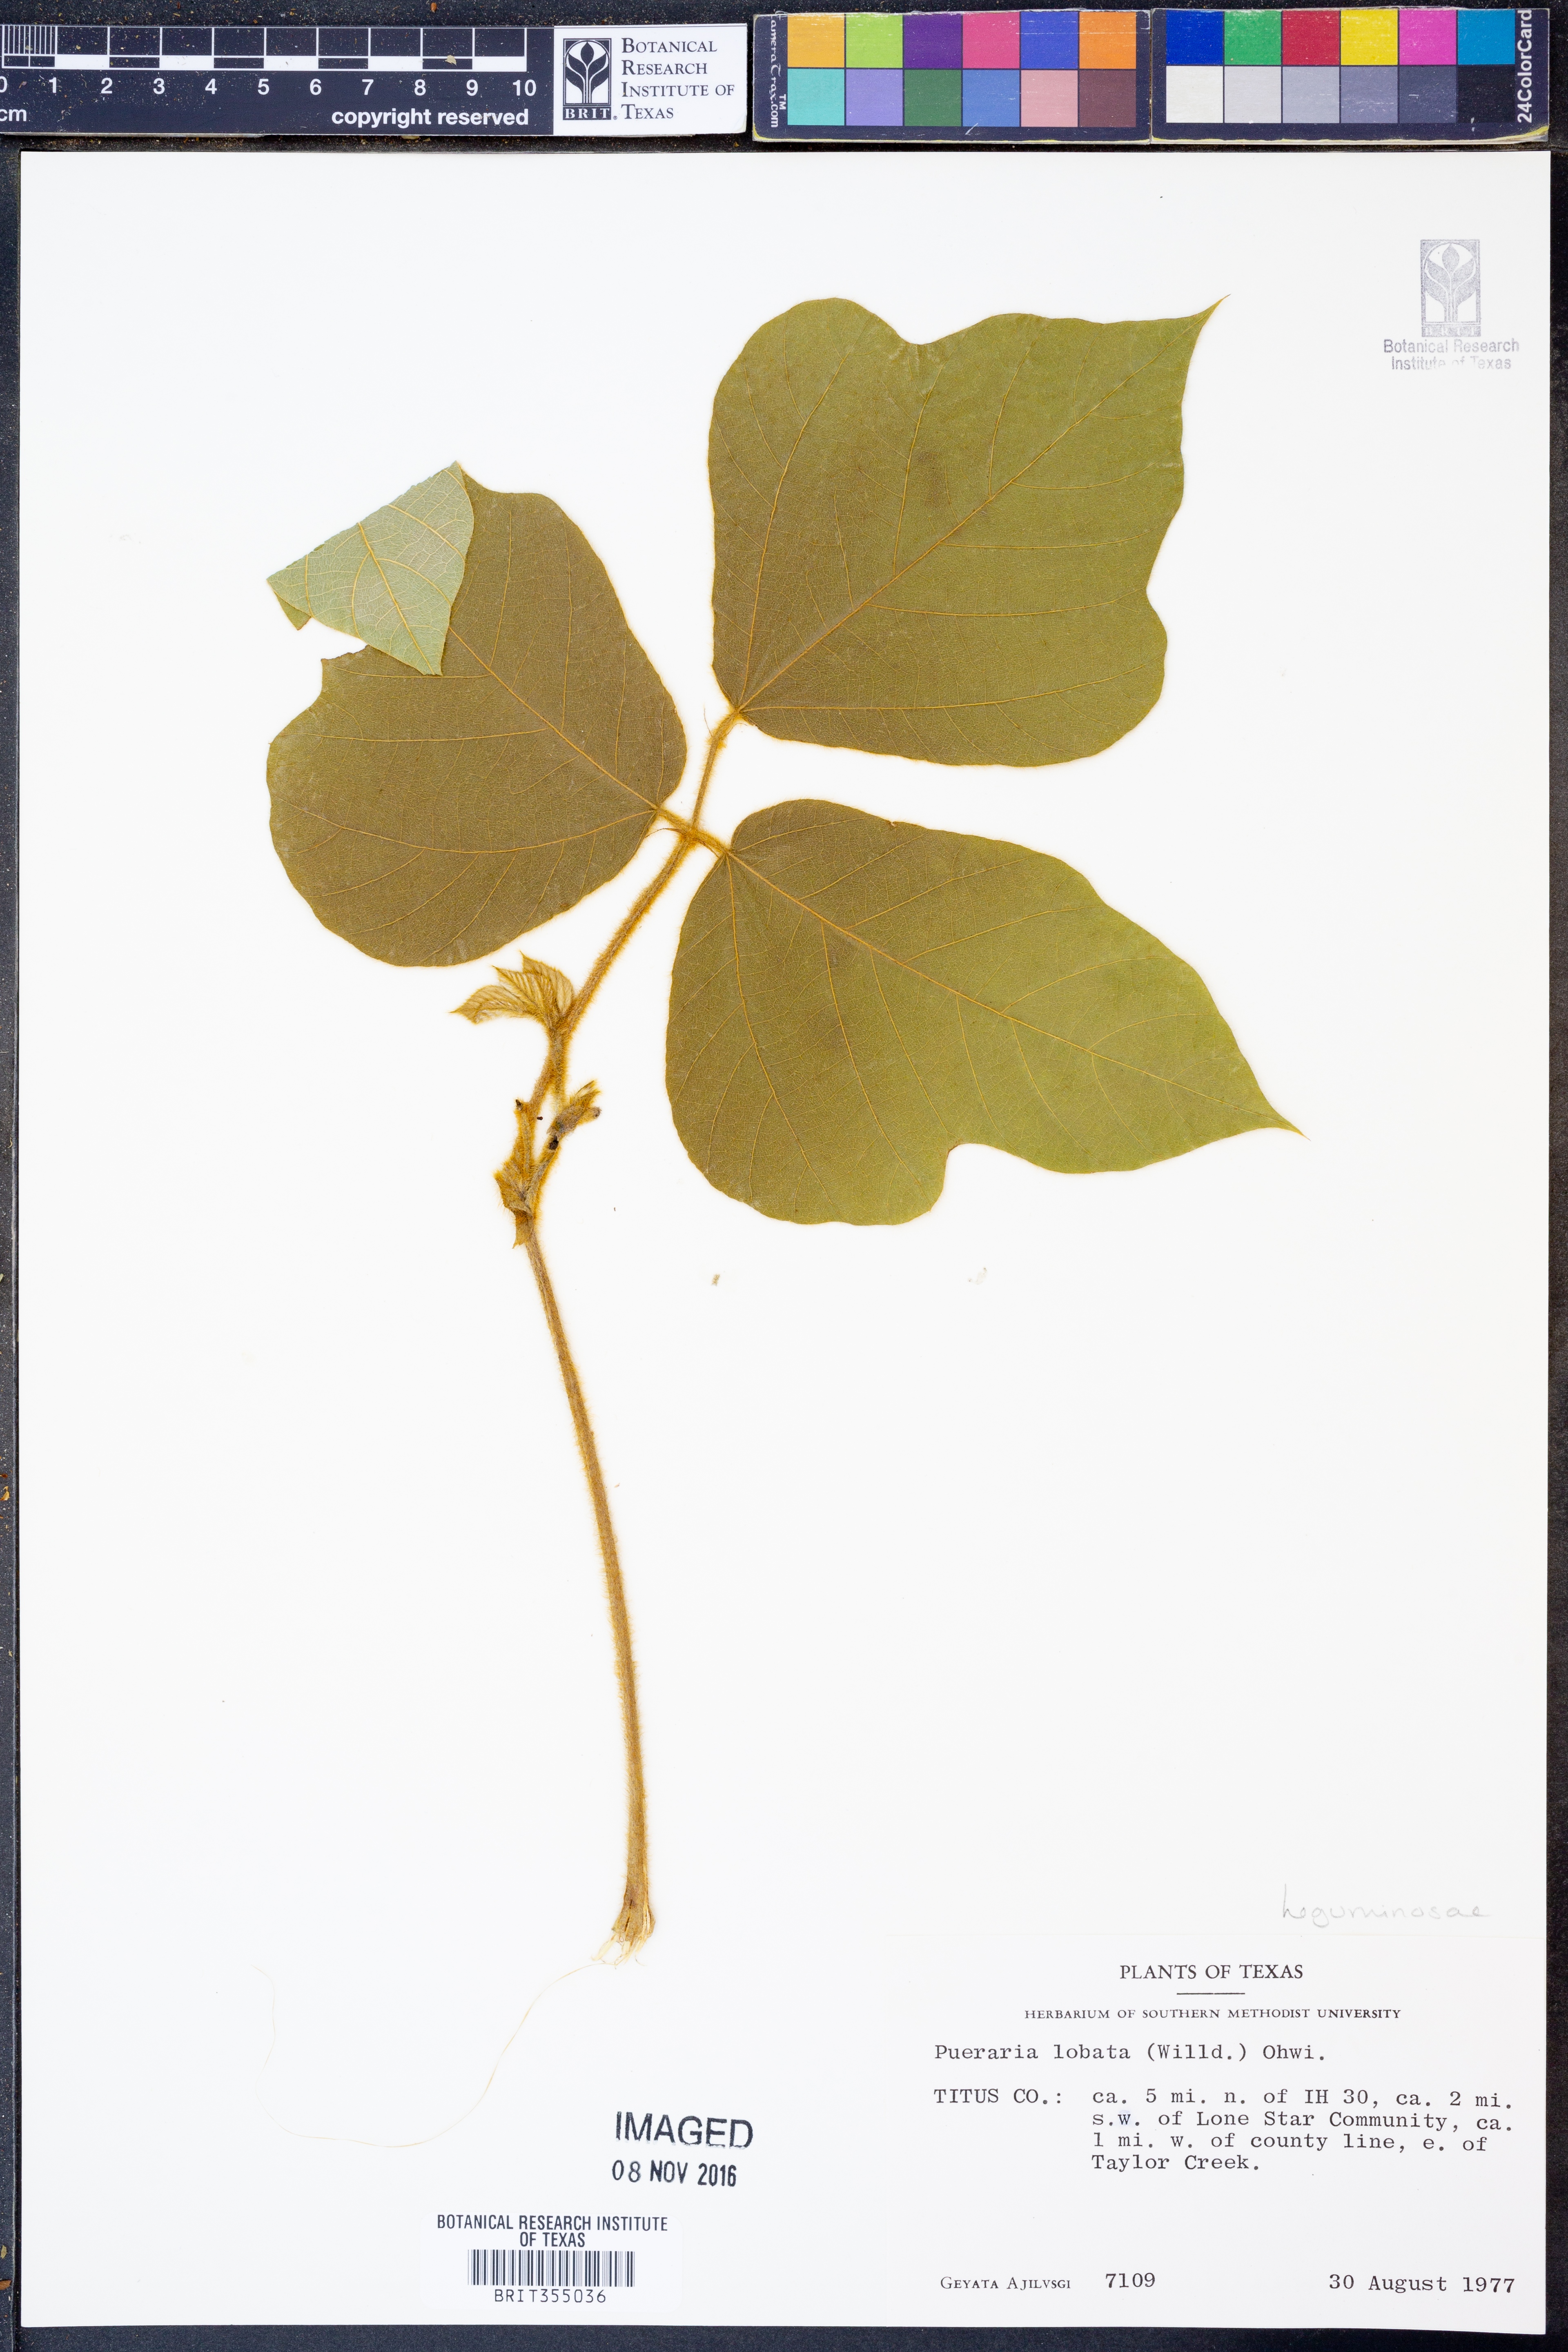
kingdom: Plantae
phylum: Tracheophyta
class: Magnoliopsida
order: Fabales
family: Fabaceae
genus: Pueraria
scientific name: Pueraria montana
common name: Kudzu
